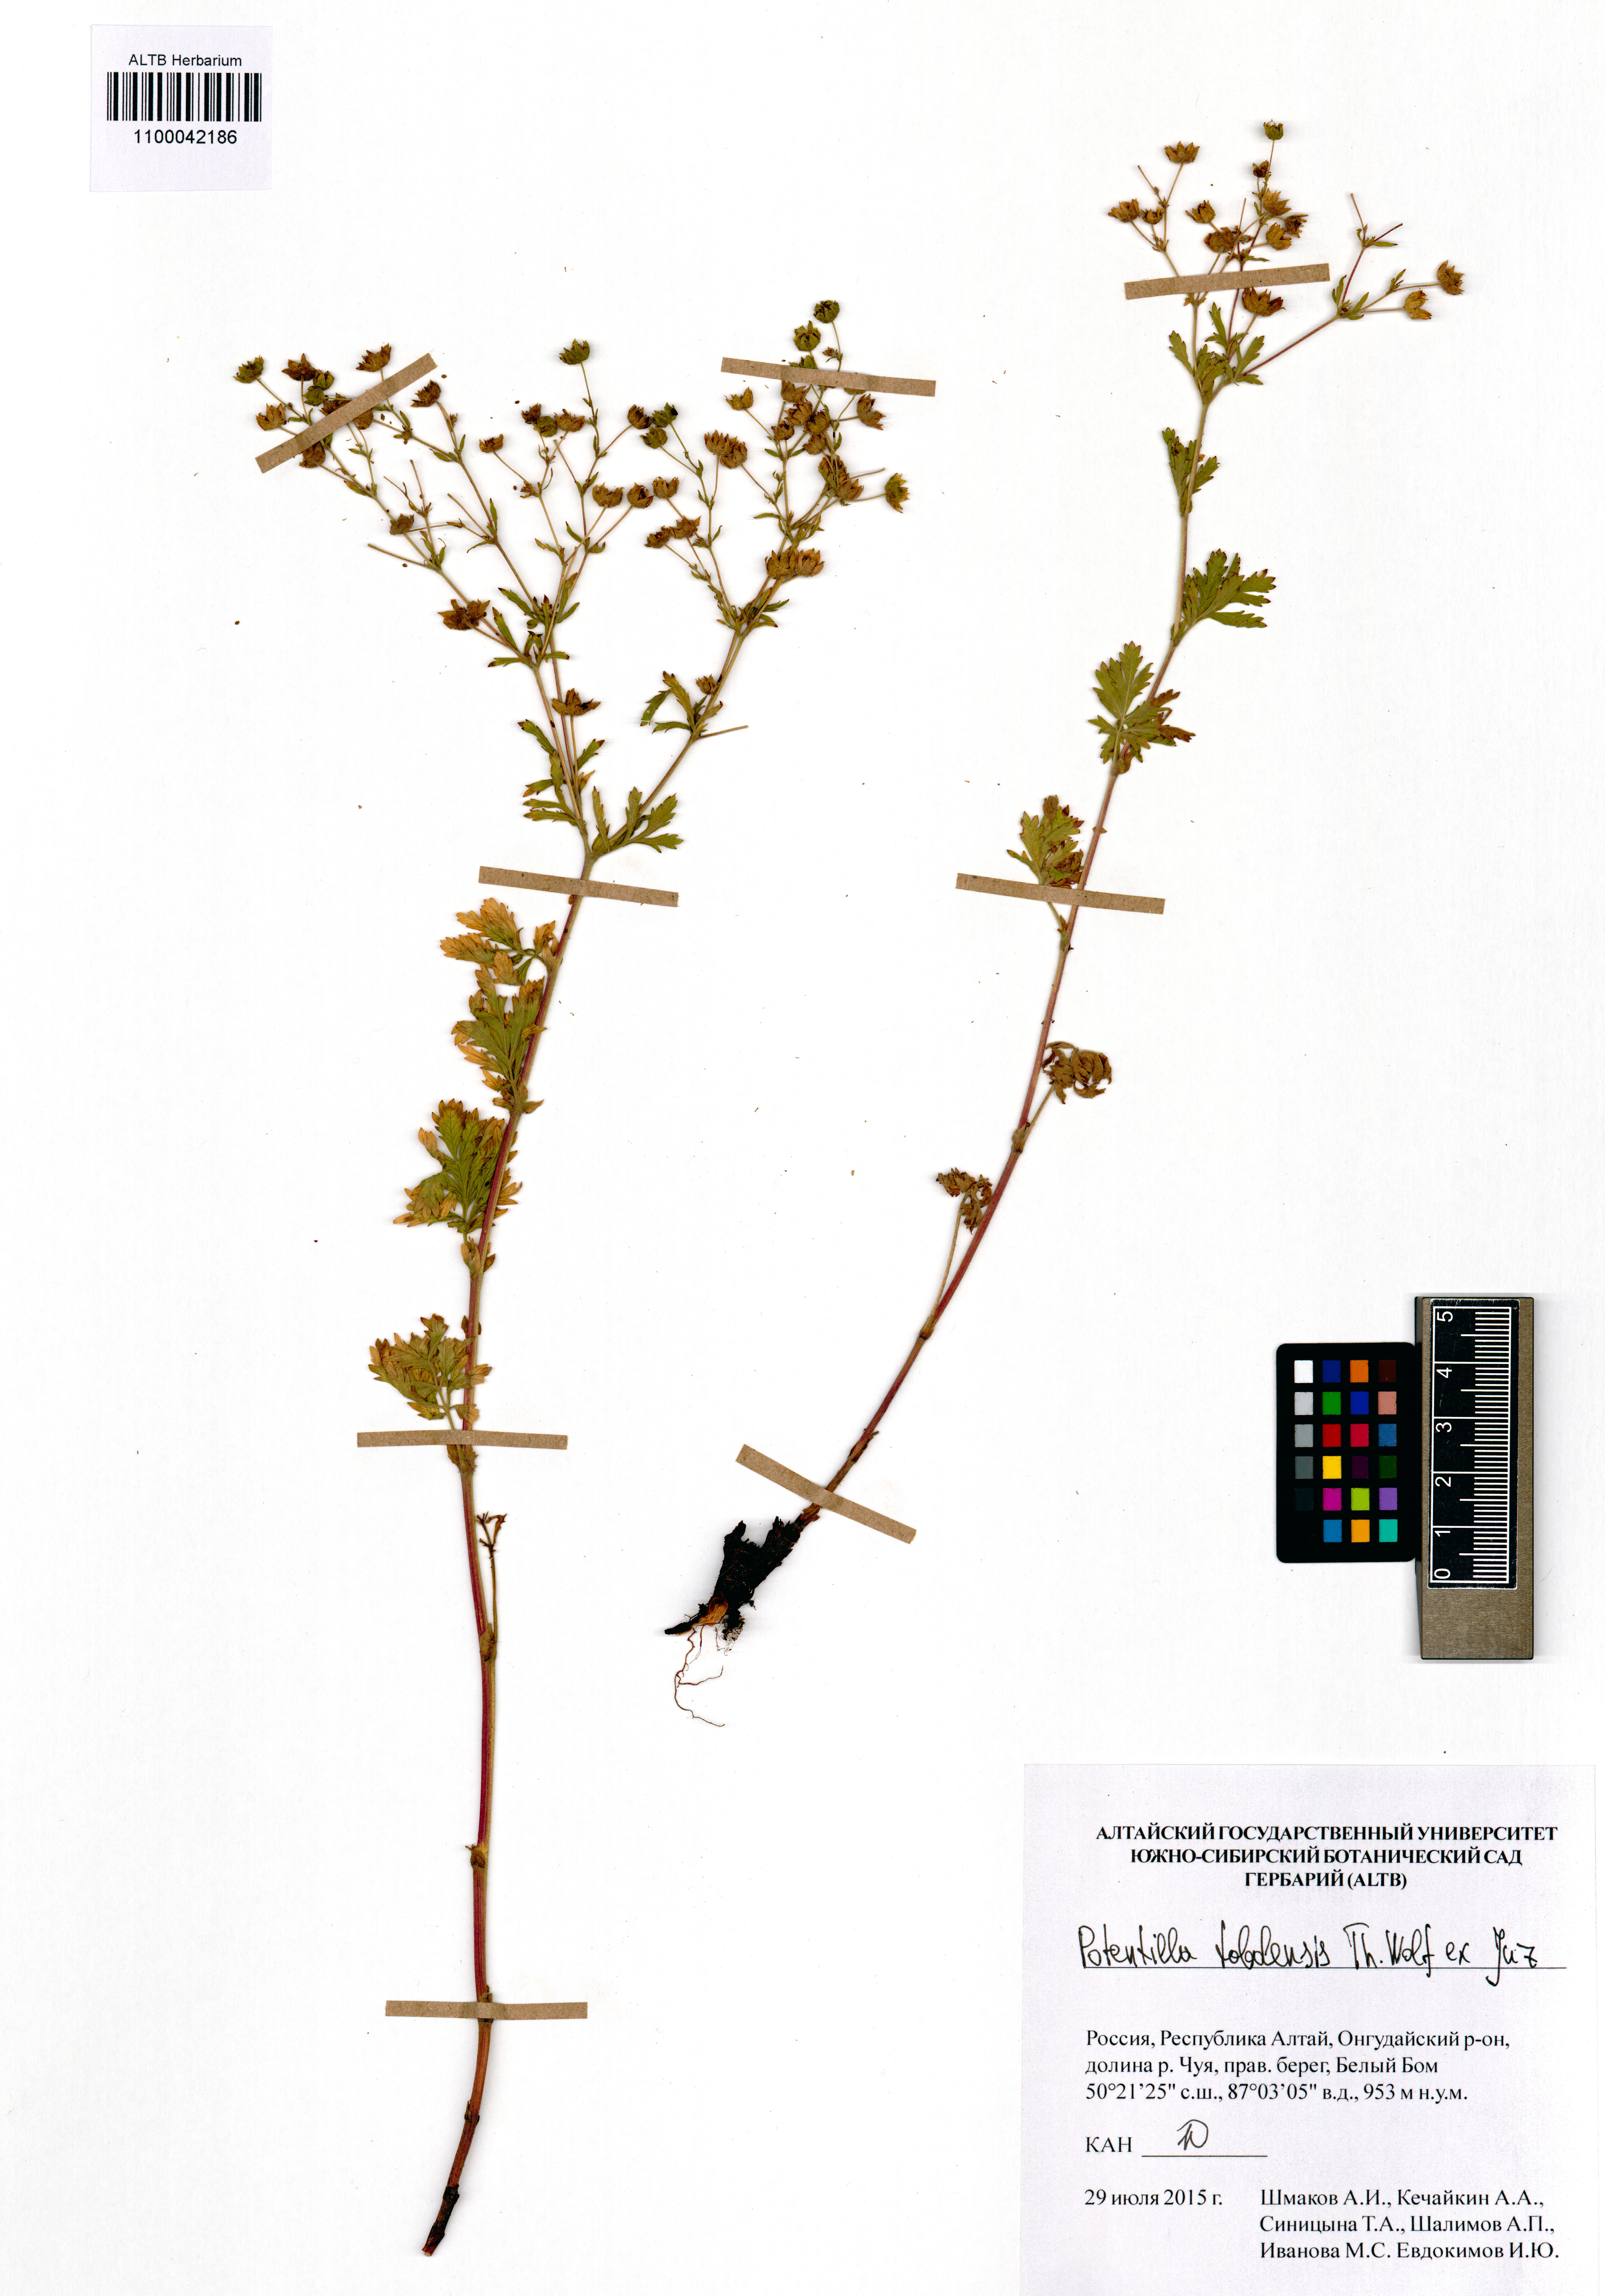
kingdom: Plantae
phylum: Tracheophyta
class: Magnoliopsida
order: Rosales
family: Rosaceae
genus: Potentilla
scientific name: Potentilla tobolensis
